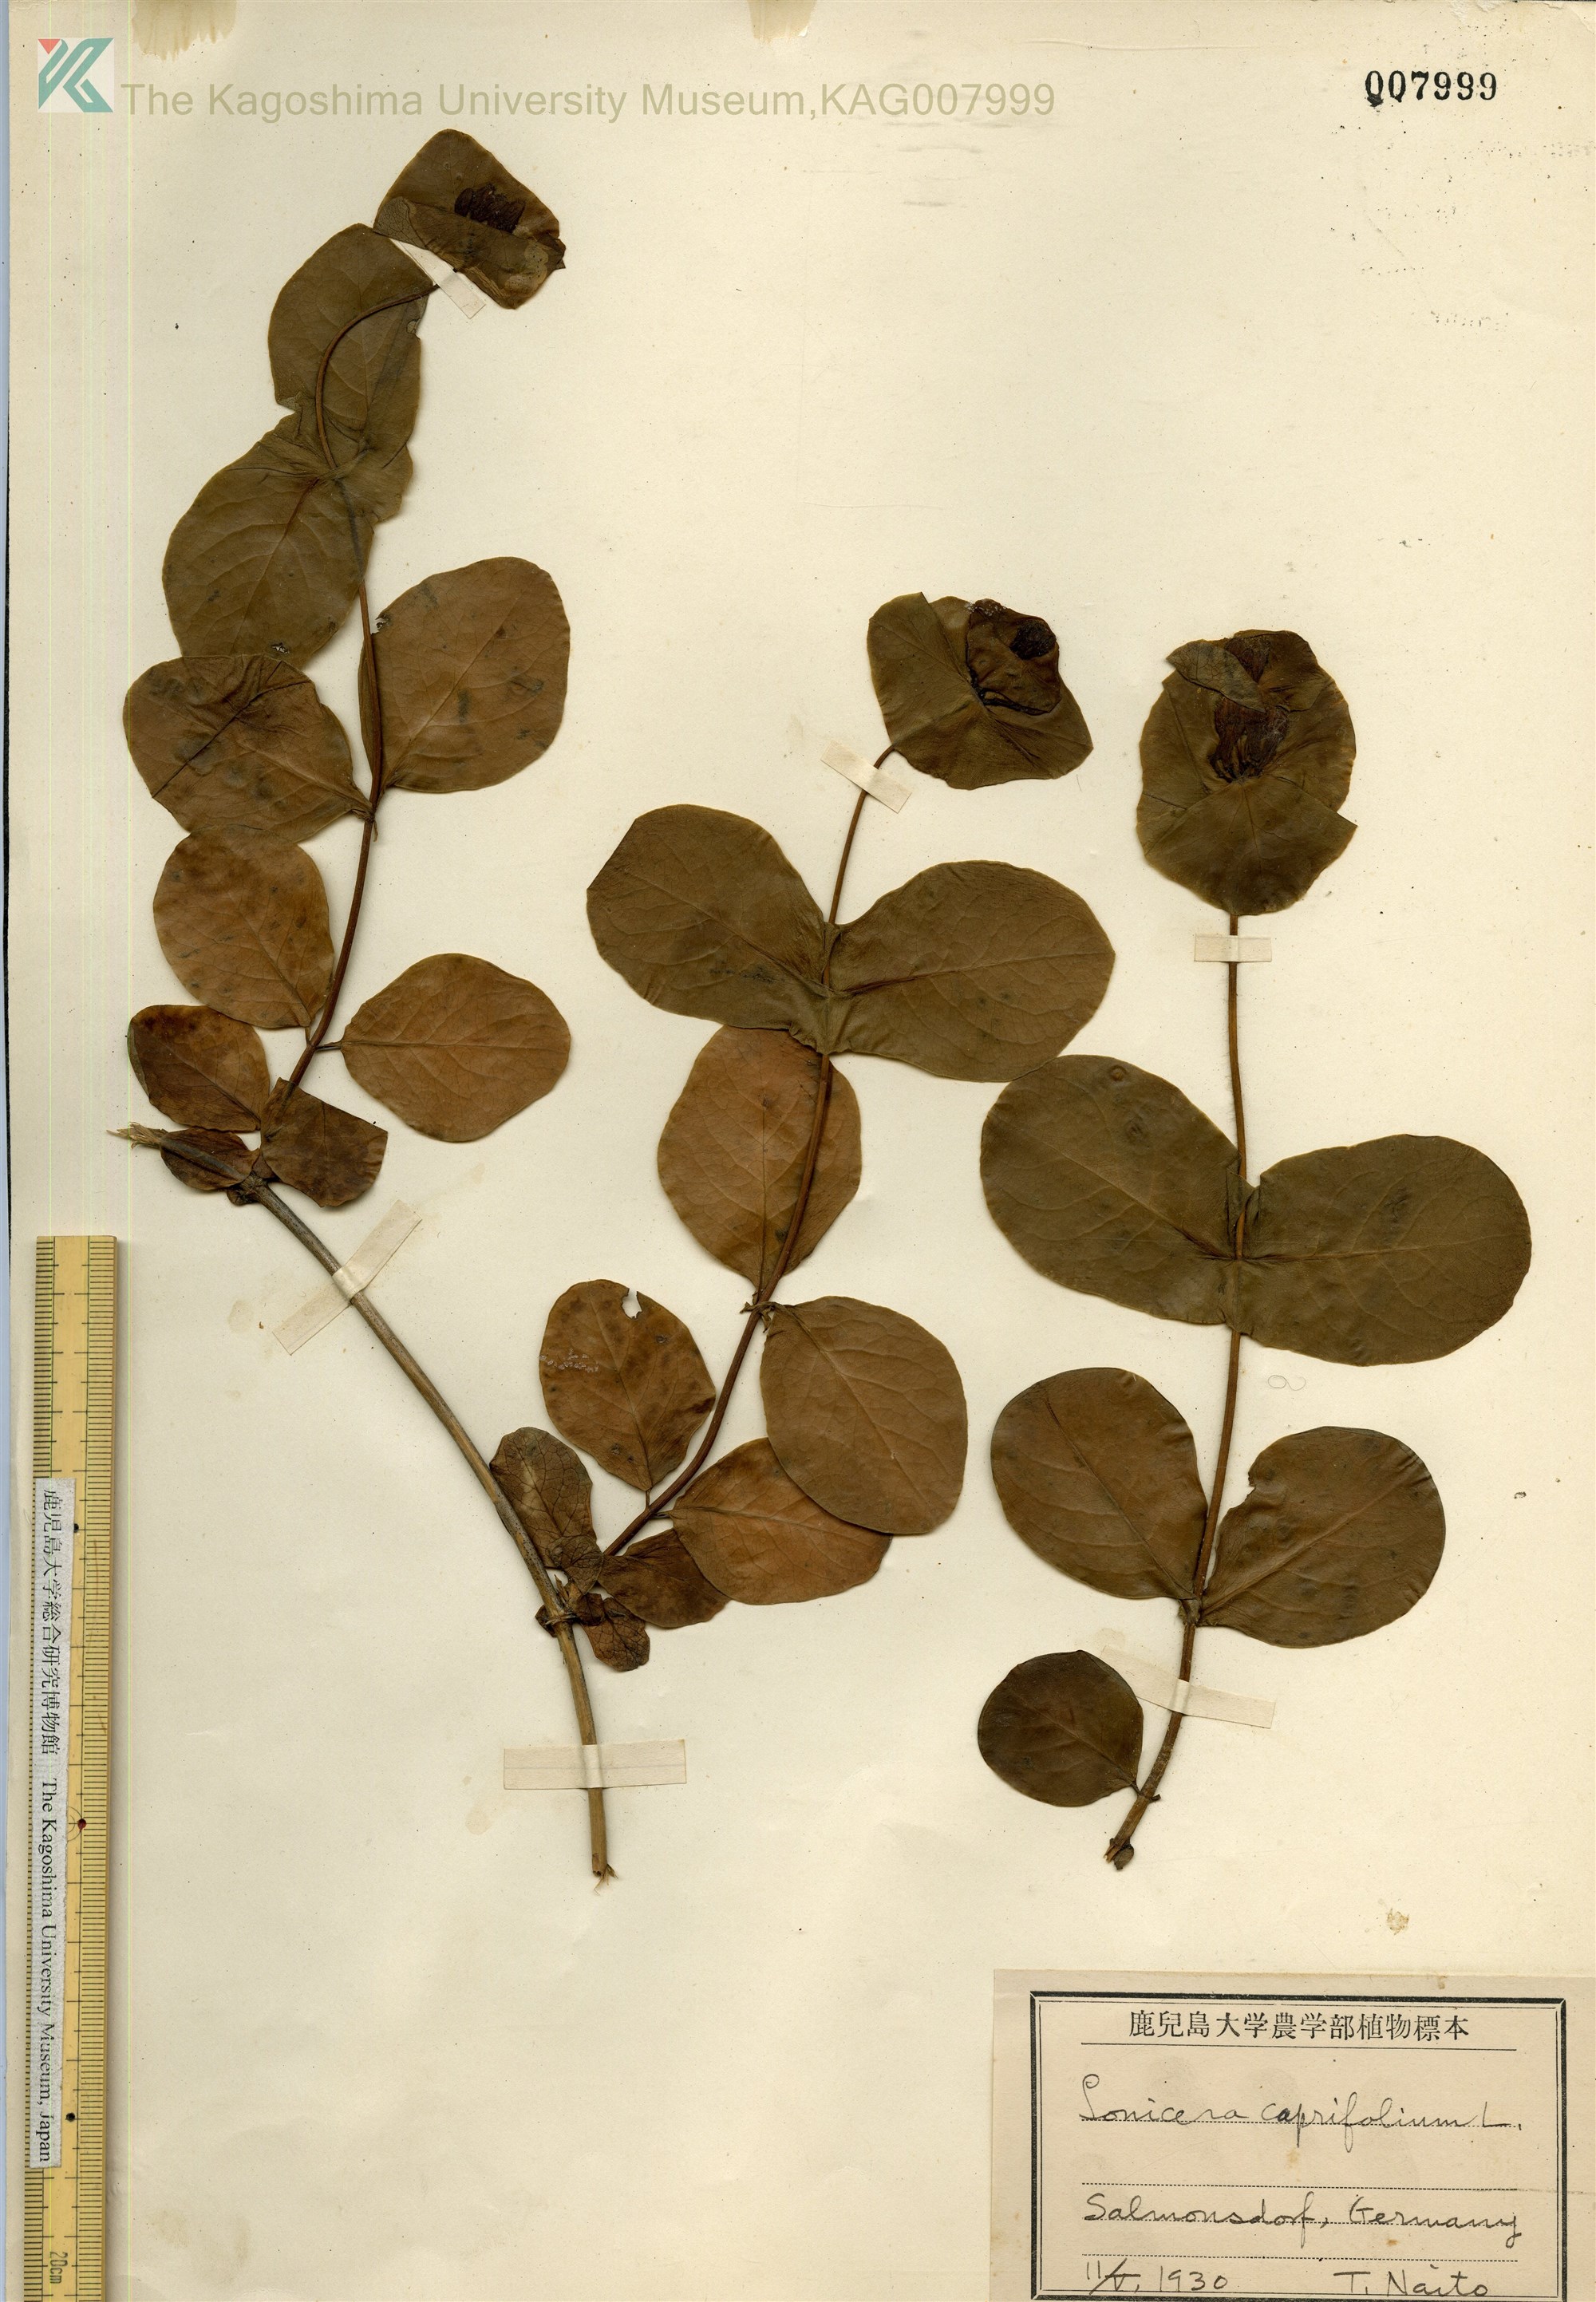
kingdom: Plantae
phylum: Tracheophyta
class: Magnoliopsida
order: Dipsacales
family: Caprifoliaceae
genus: Lonicera
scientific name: Lonicera caprifolium
